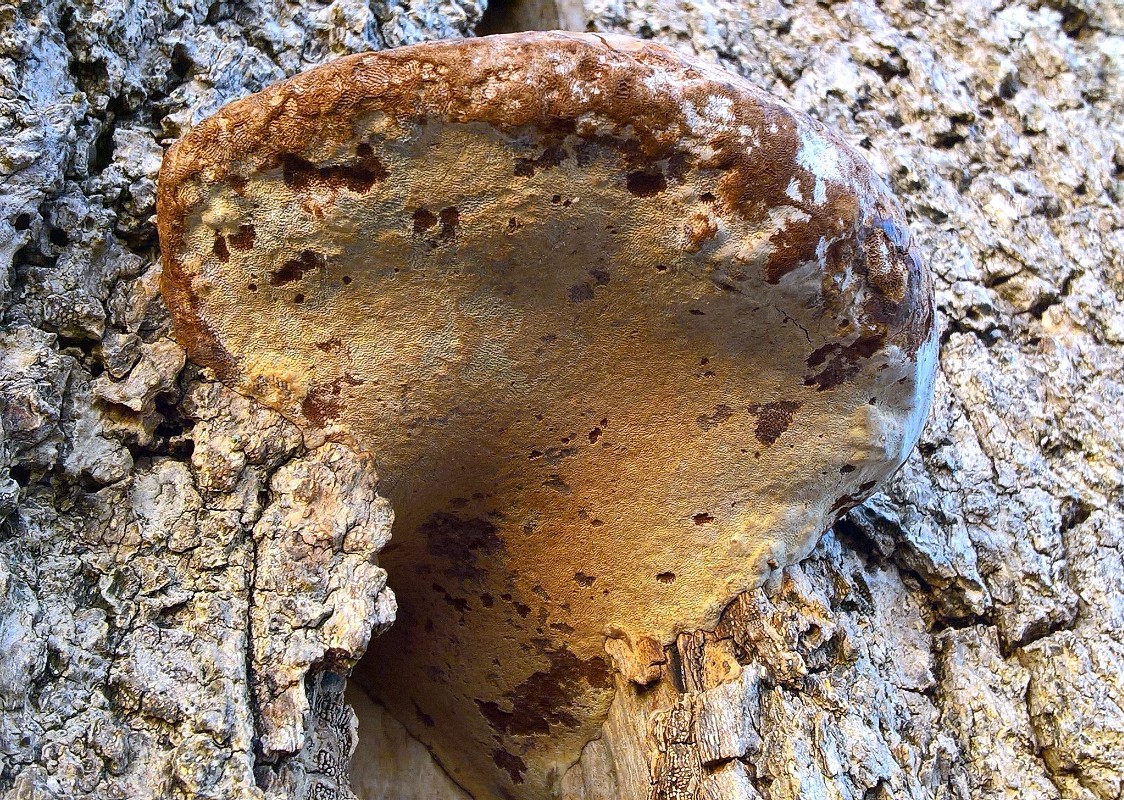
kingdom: Fungi
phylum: Basidiomycota
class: Agaricomycetes
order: Polyporales
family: Polyporaceae
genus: Ganoderma
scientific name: Ganoderma adspersum
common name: grov lakporesvamp
